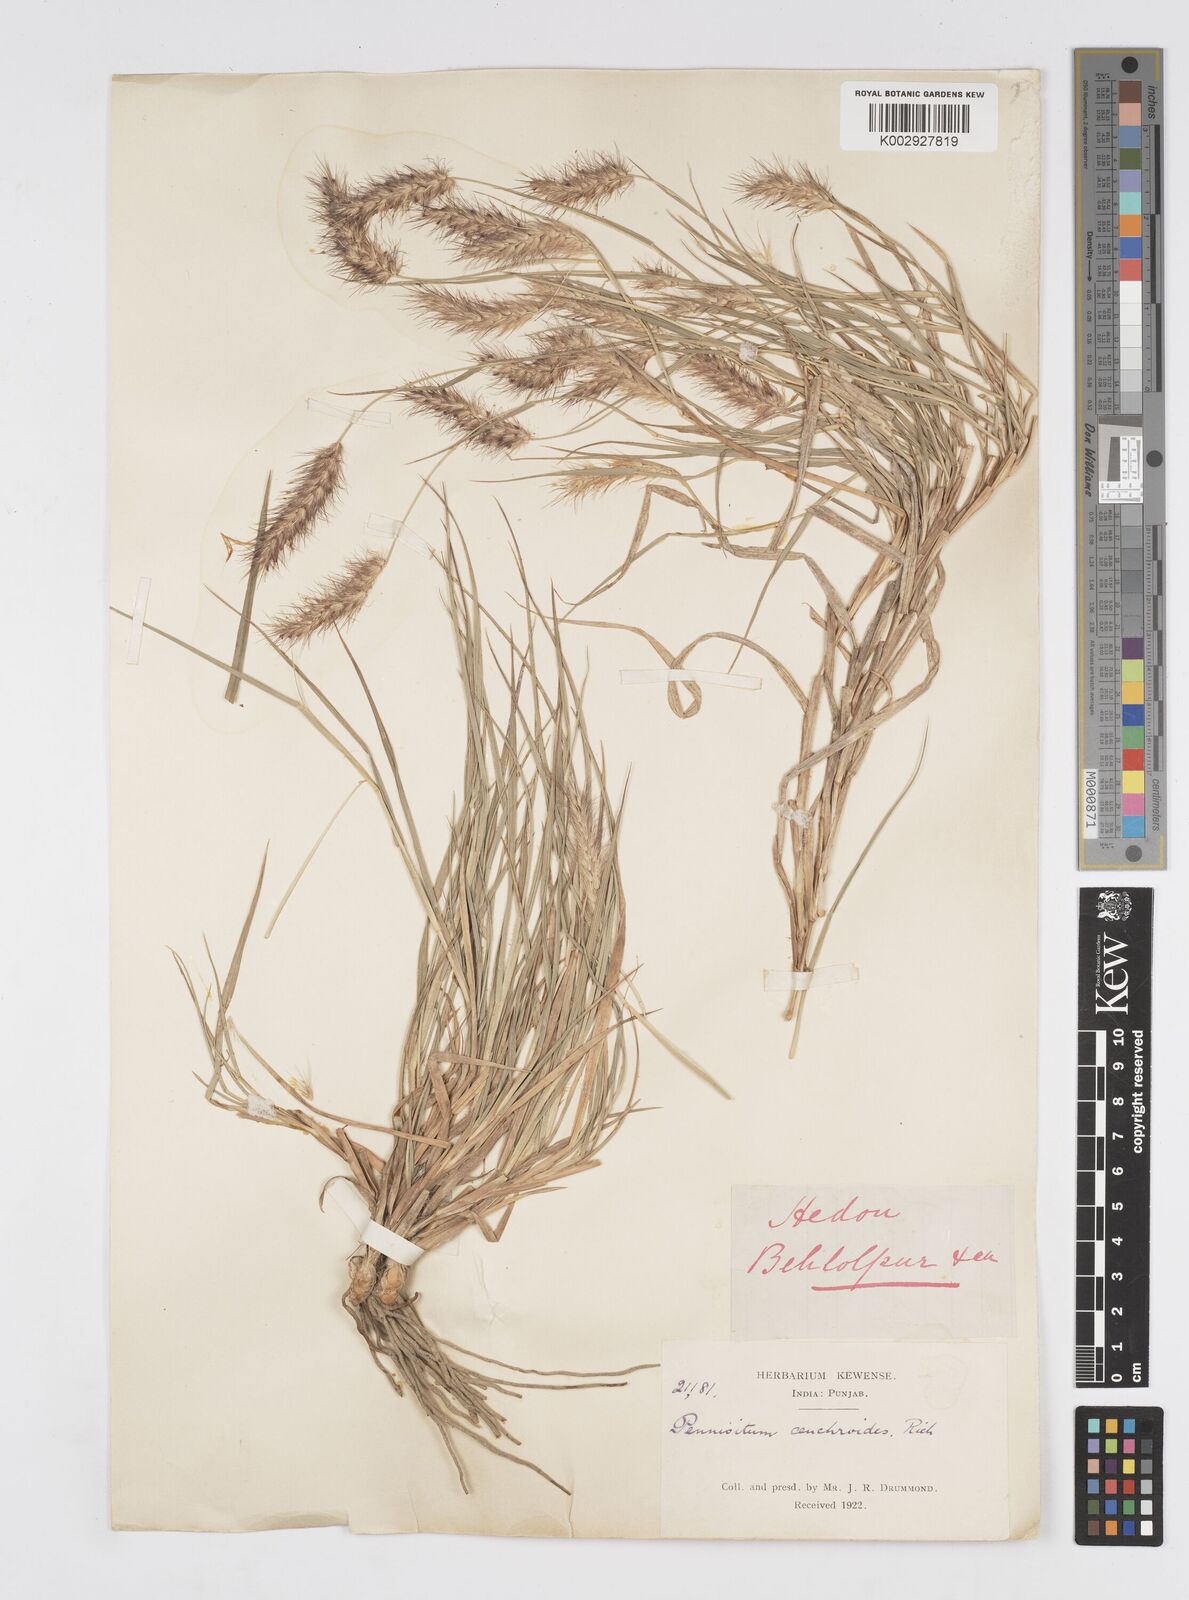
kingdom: Plantae
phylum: Tracheophyta
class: Liliopsida
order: Poales
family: Poaceae
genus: Cenchrus
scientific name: Cenchrus ciliaris
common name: Buffelgrass
